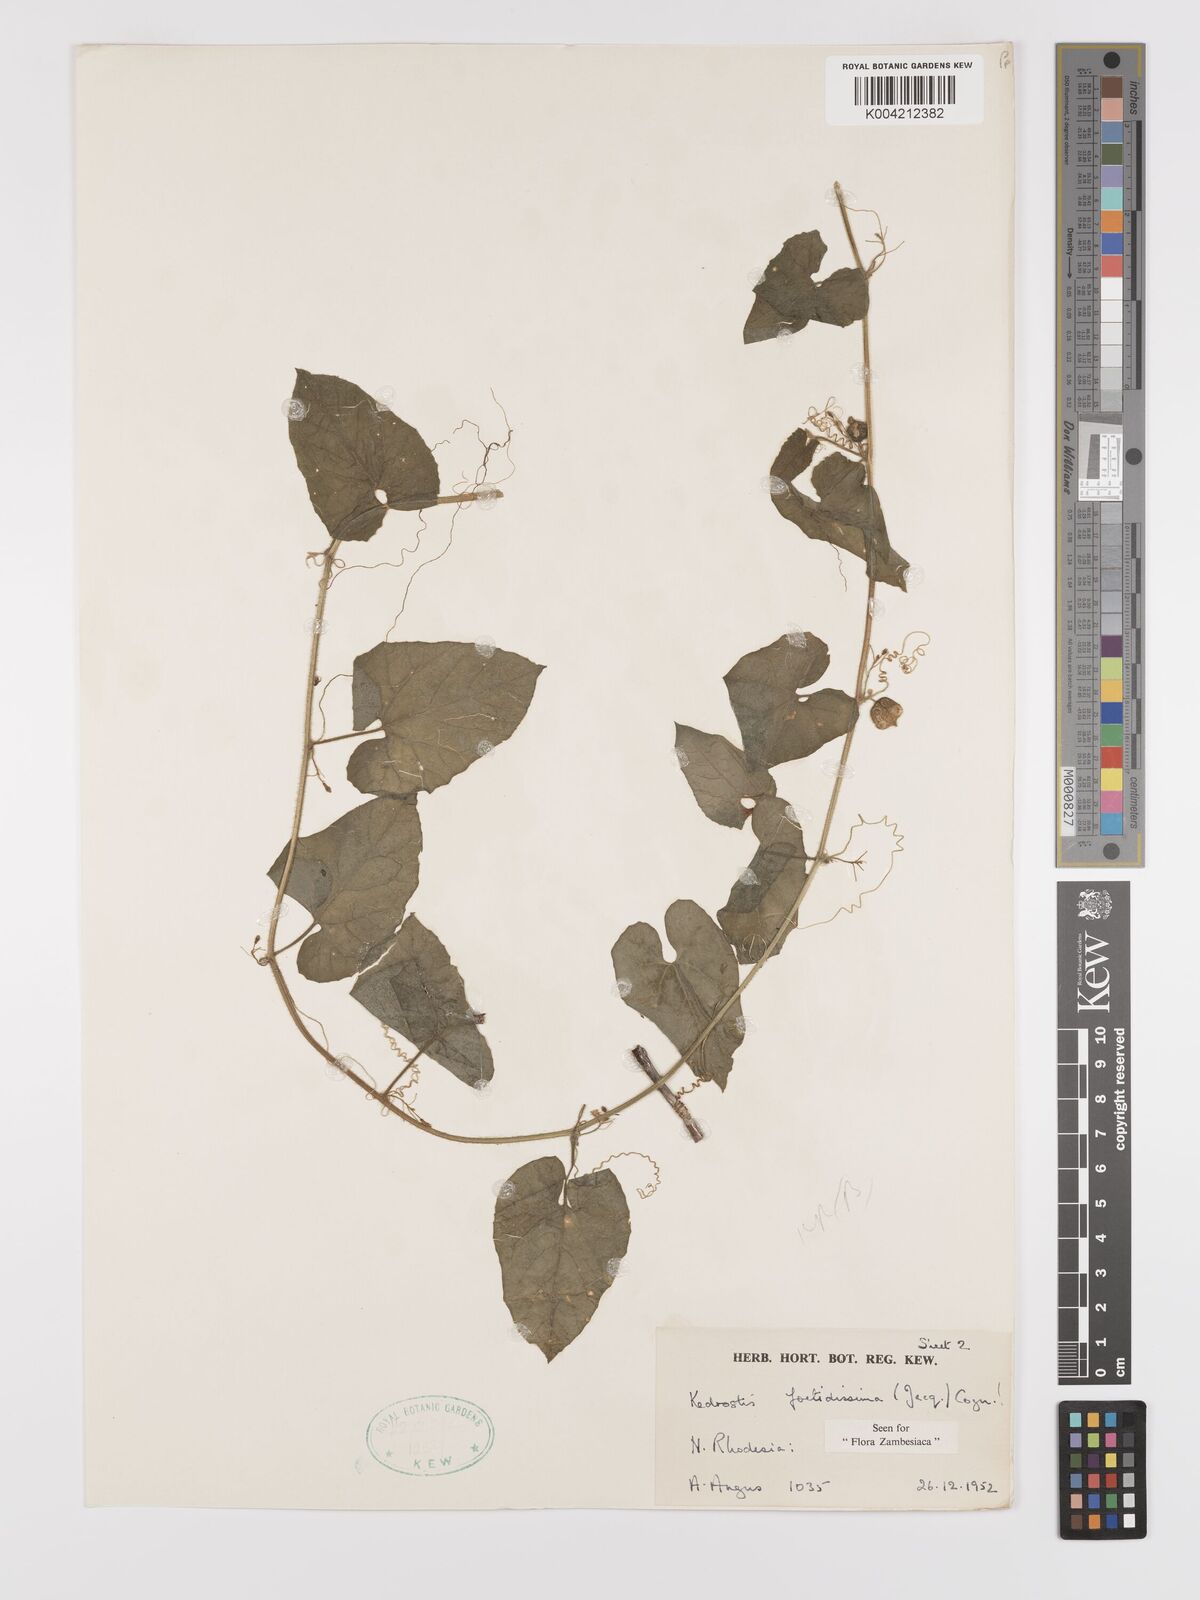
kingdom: Plantae
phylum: Tracheophyta
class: Magnoliopsida
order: Cucurbitales
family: Cucurbitaceae
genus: Kedrostis
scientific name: Kedrostis foetidissima
